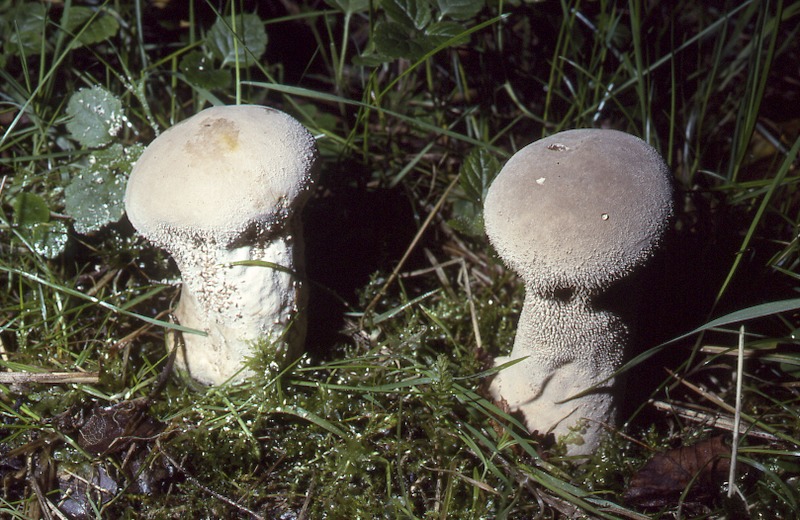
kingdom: Fungi
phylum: Basidiomycota
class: Agaricomycetes
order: Agaricales
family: Lycoperdaceae
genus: Lycoperdon
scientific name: Lycoperdon excipuliforme
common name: Pestle puffball
